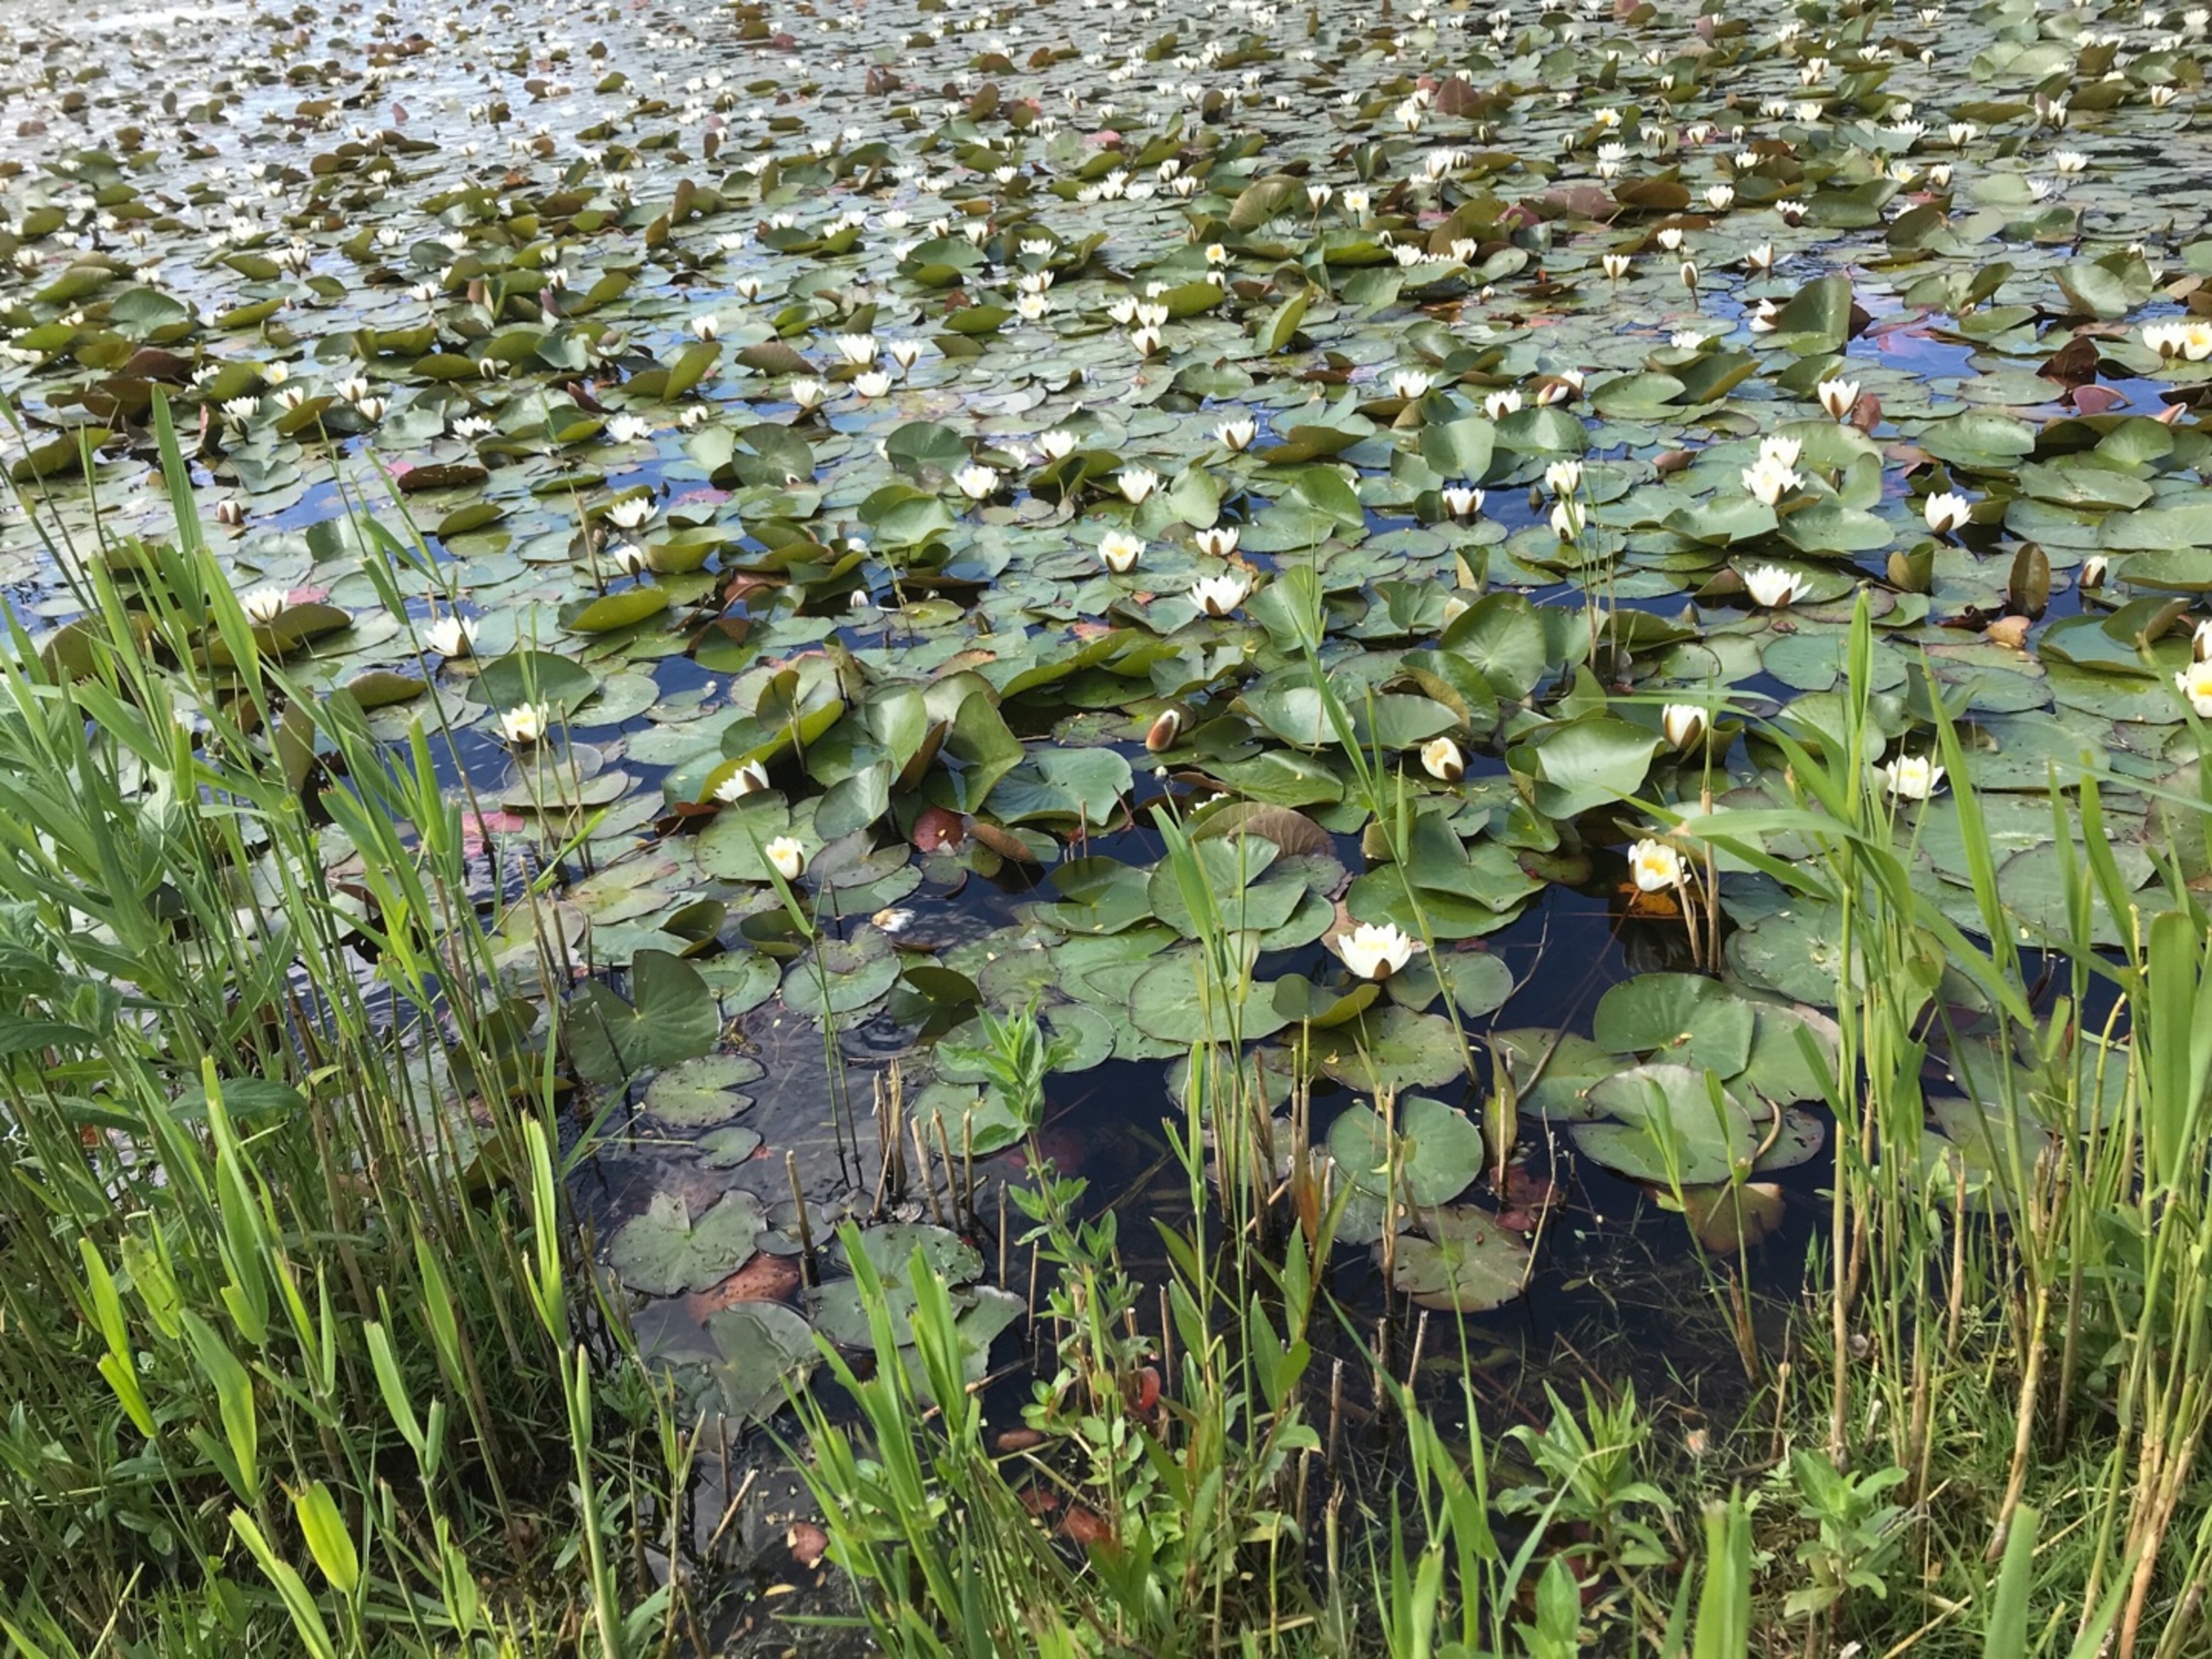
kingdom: Plantae
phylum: Tracheophyta
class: Magnoliopsida
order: Nymphaeales
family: Nymphaeaceae
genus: Nymphaea
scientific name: Nymphaea alba
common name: Hvid åkande
